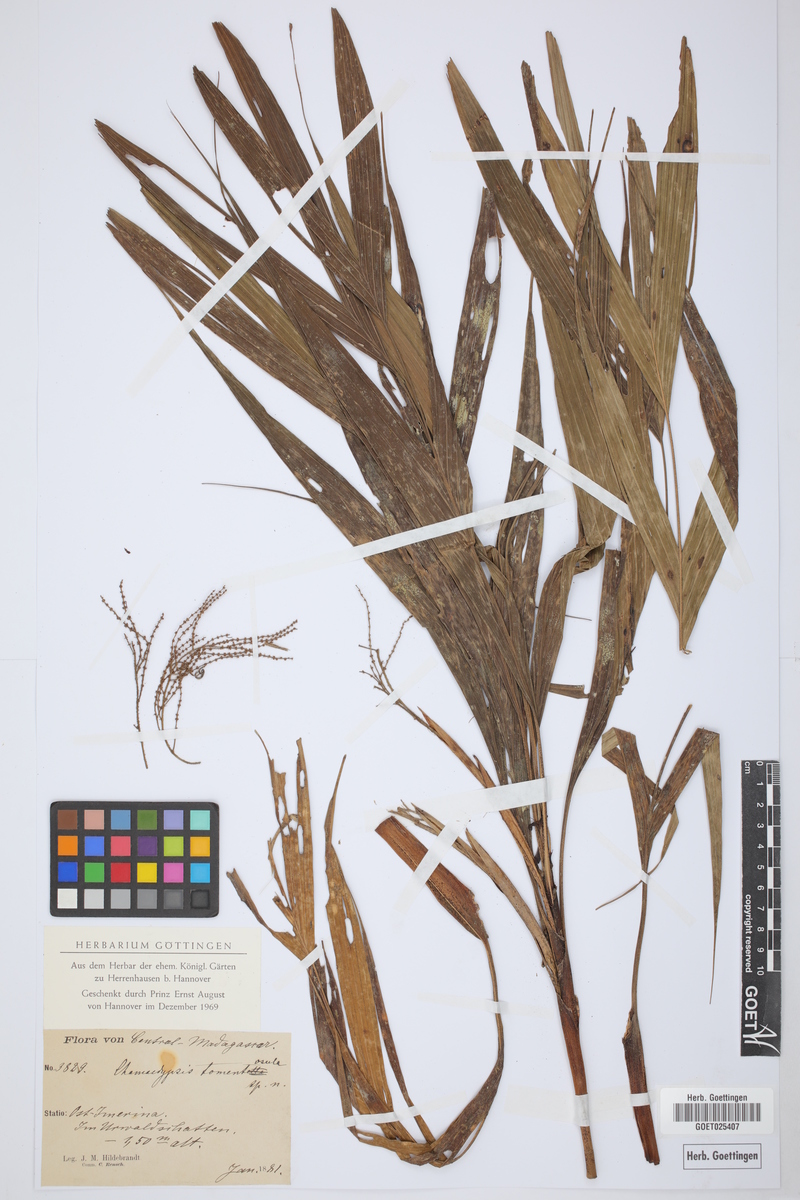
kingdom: Plantae
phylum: Tracheophyta
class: Liliopsida
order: Arecales
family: Arecaceae
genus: Dypsis
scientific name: Dypsis hildebrandtii
